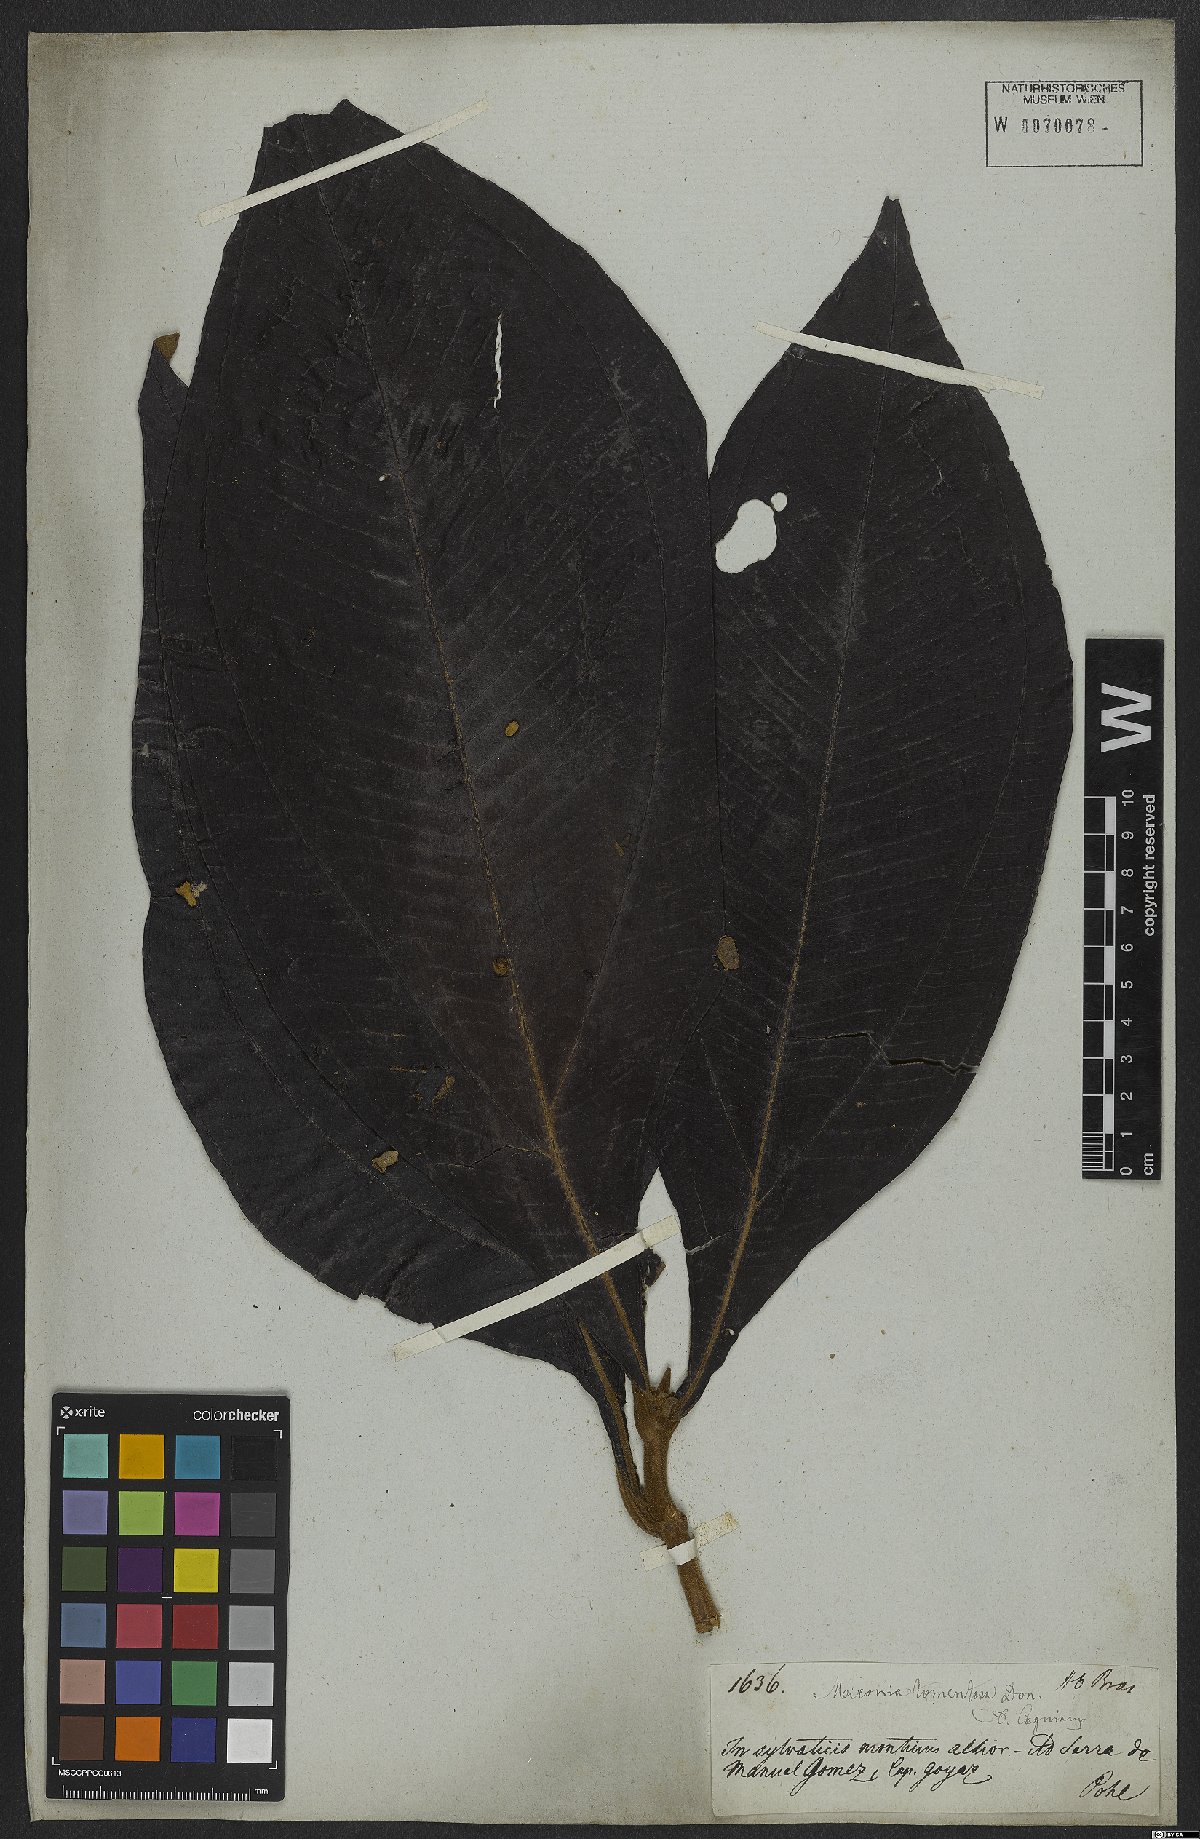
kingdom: Plantae
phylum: Tracheophyta
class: Magnoliopsida
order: Myrtales
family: Melastomataceae
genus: Miconia
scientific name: Miconia tomentosa
